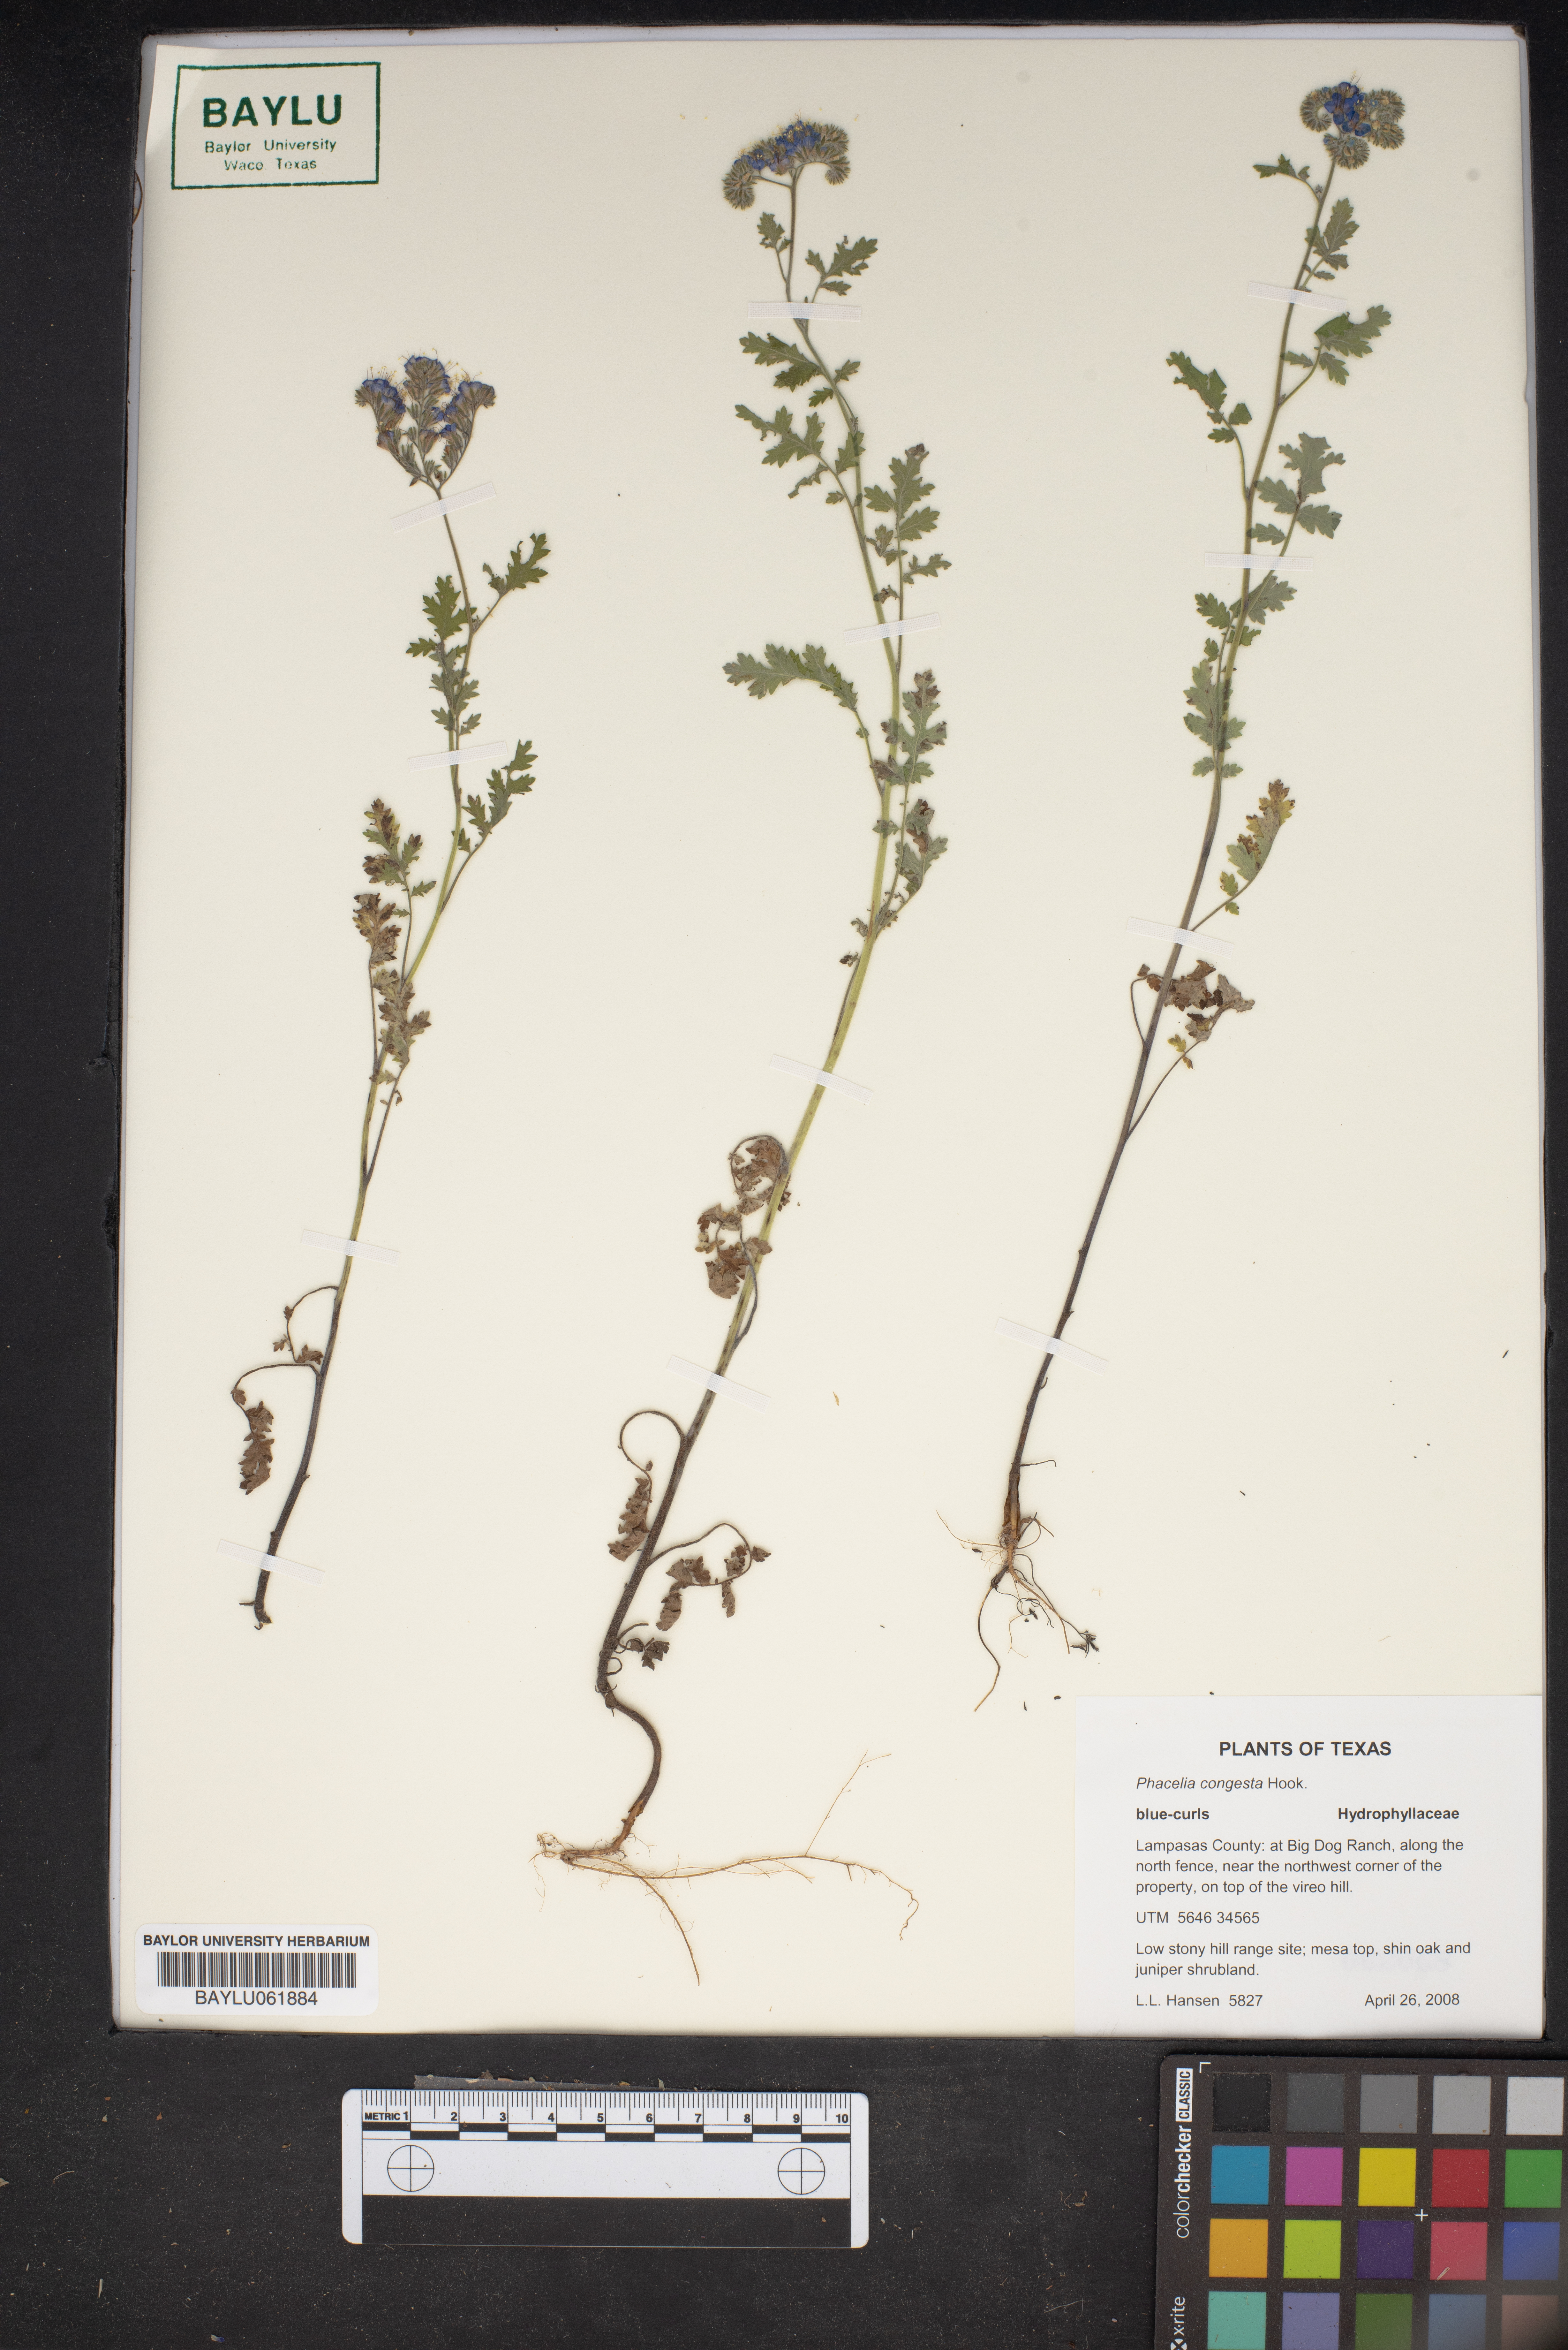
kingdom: Plantae
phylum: Tracheophyta
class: Magnoliopsida
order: Boraginales
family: Hydrophyllaceae
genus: Phacelia
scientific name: Phacelia congesta
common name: Blue curls
